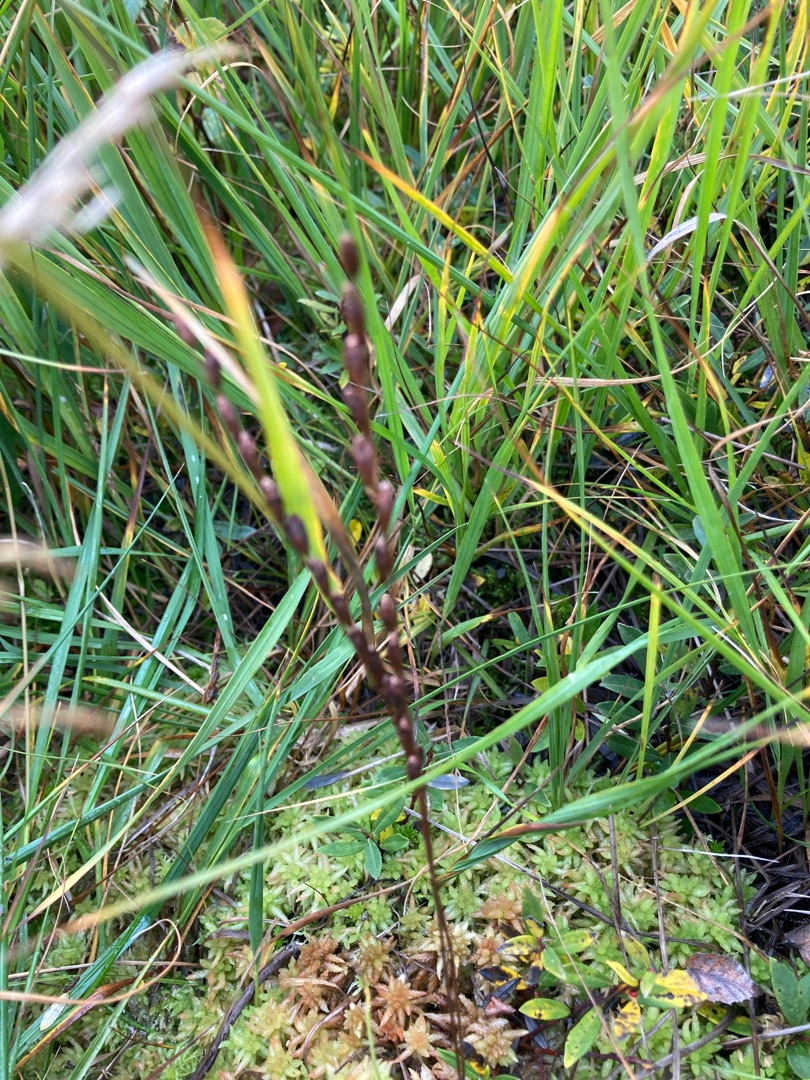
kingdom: Plantae
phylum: Tracheophyta
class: Magnoliopsida
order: Caryophyllales
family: Droseraceae
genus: Drosera
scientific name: Drosera rotundifolia
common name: Rundbladet soldug
